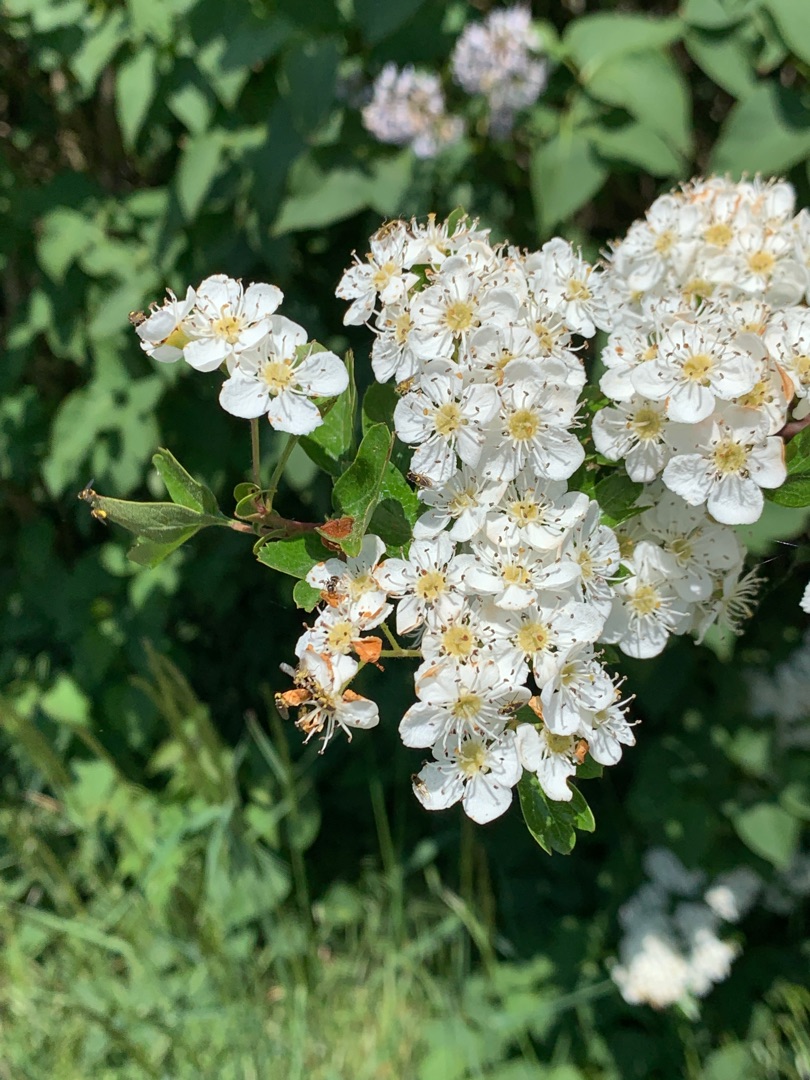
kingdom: Plantae
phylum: Tracheophyta
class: Magnoliopsida
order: Rosales
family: Rosaceae
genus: Crataegus
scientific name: Crataegus monogyna
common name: Engriflet hvidtjørn
